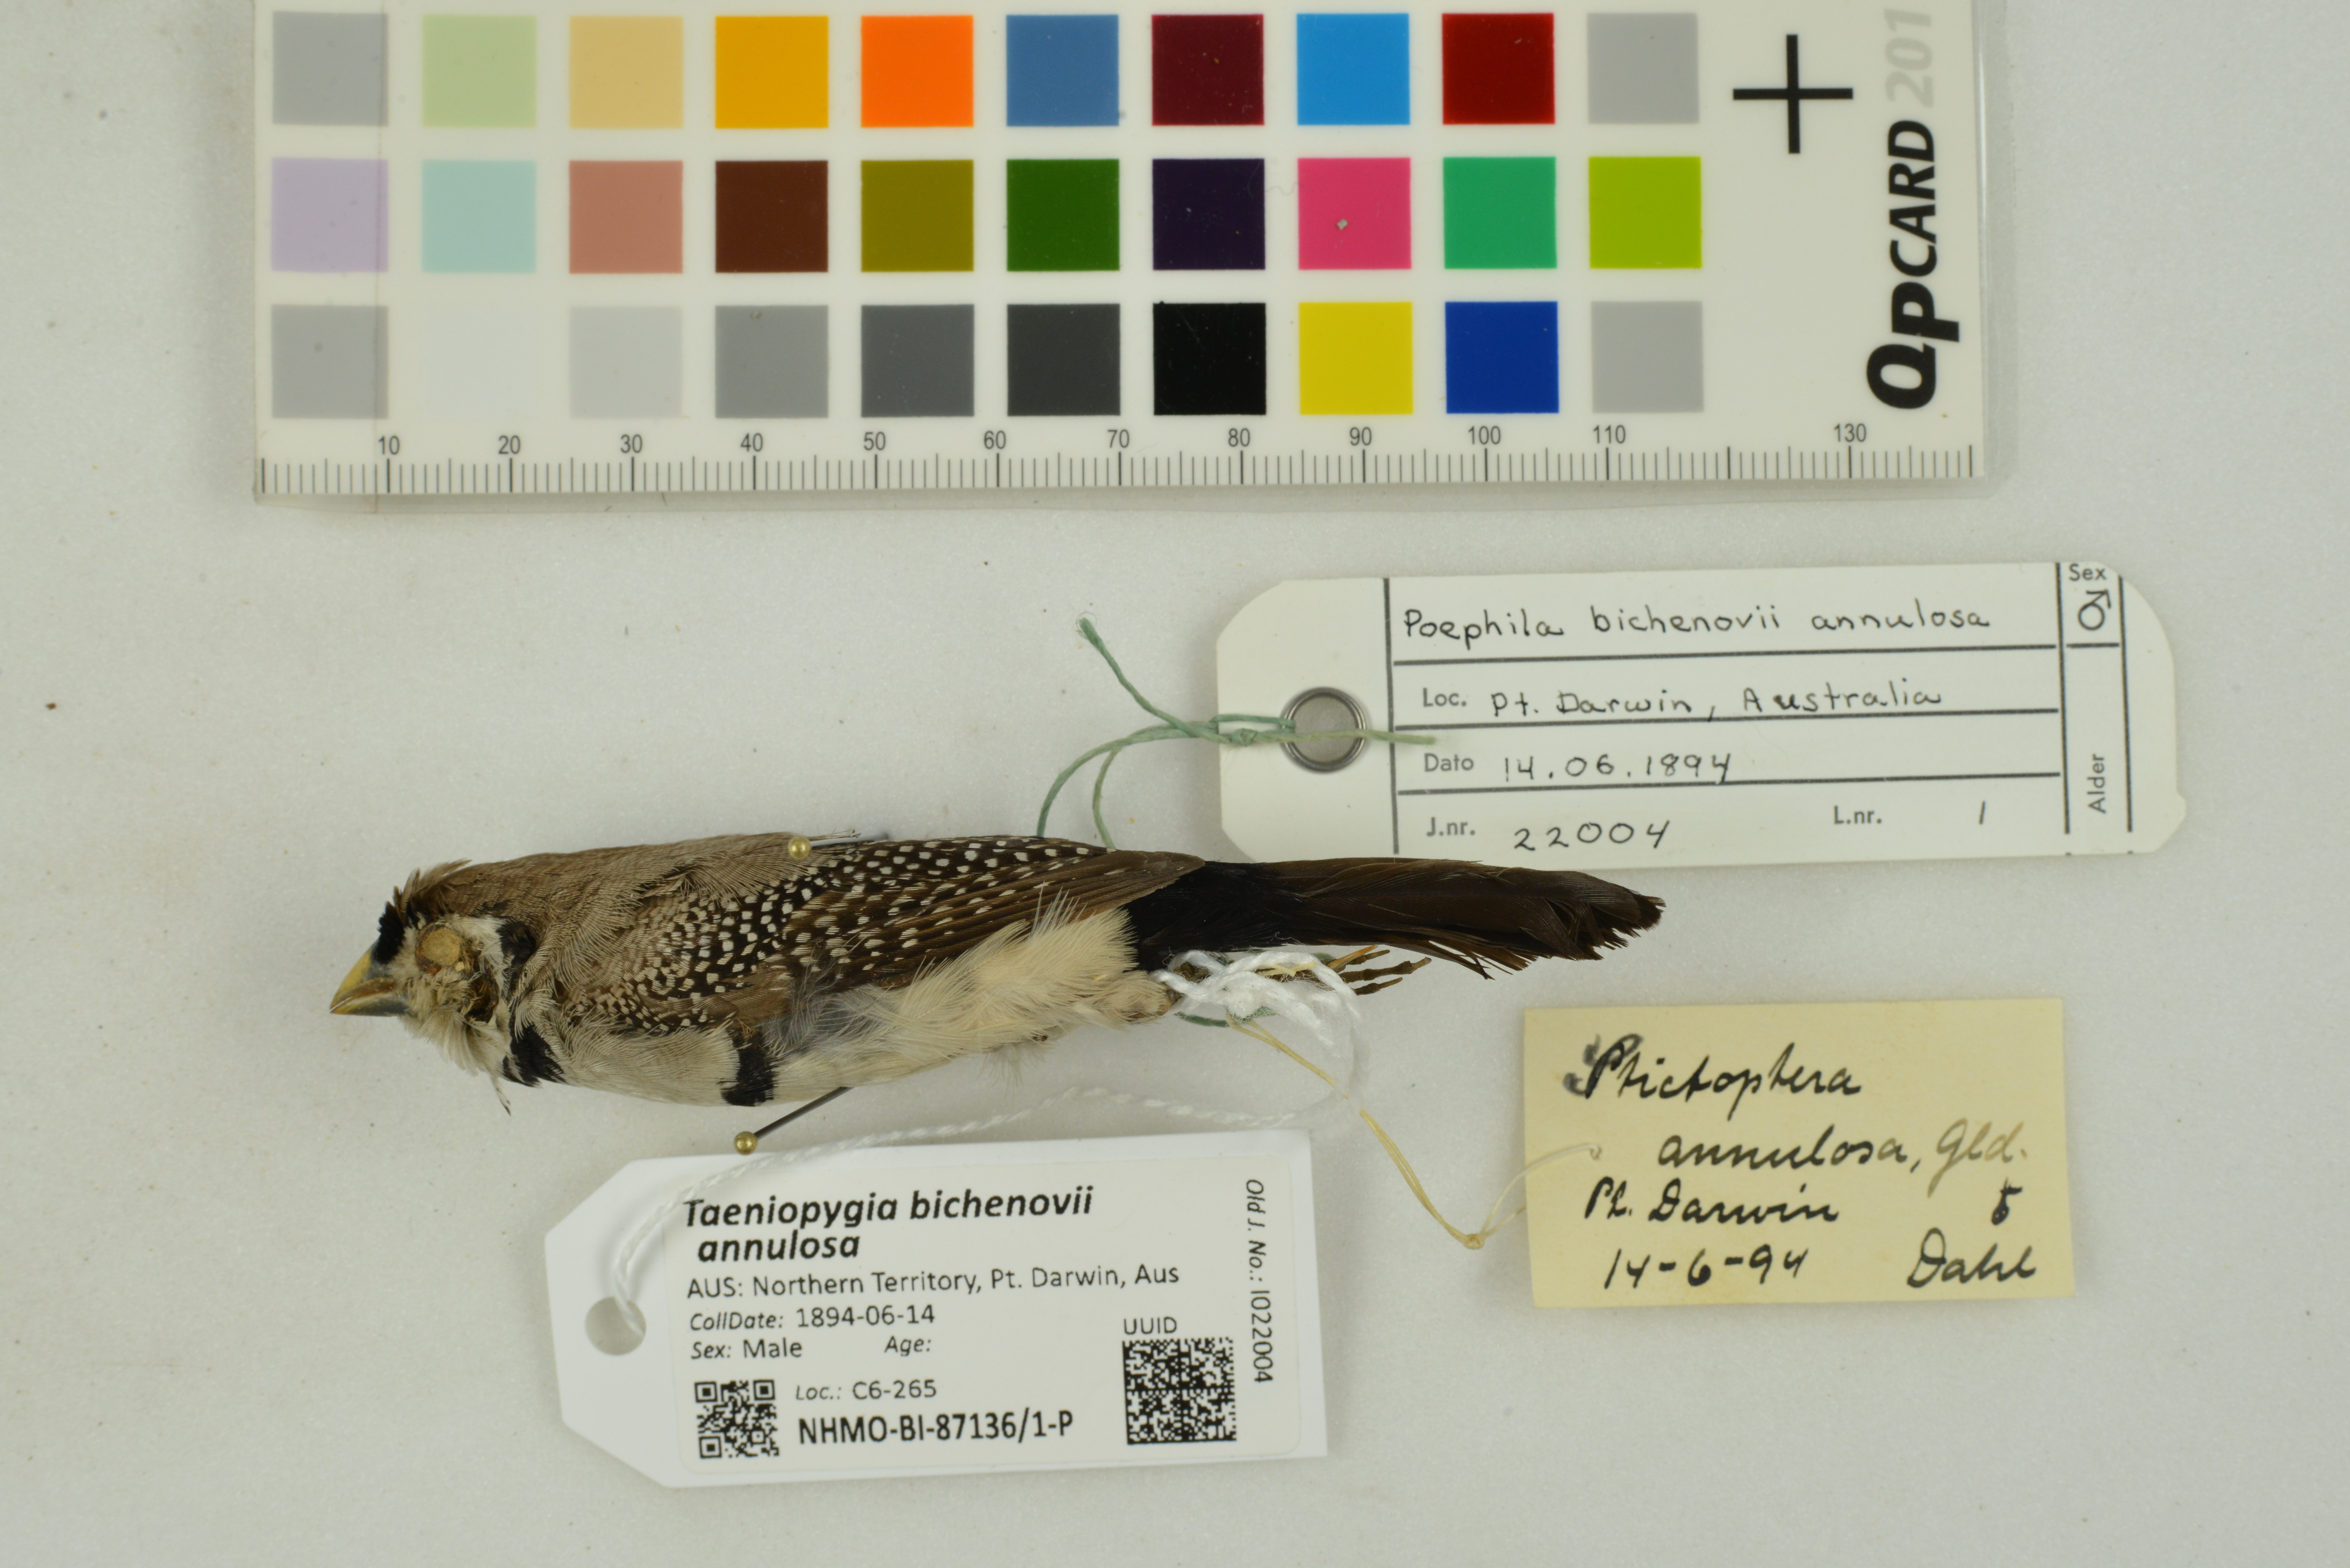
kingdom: Animalia
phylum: Chordata
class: Aves
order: Passeriformes
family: Estrildidae
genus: Taeniopygia
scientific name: Taeniopygia bichenovii
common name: Double-barred finch
